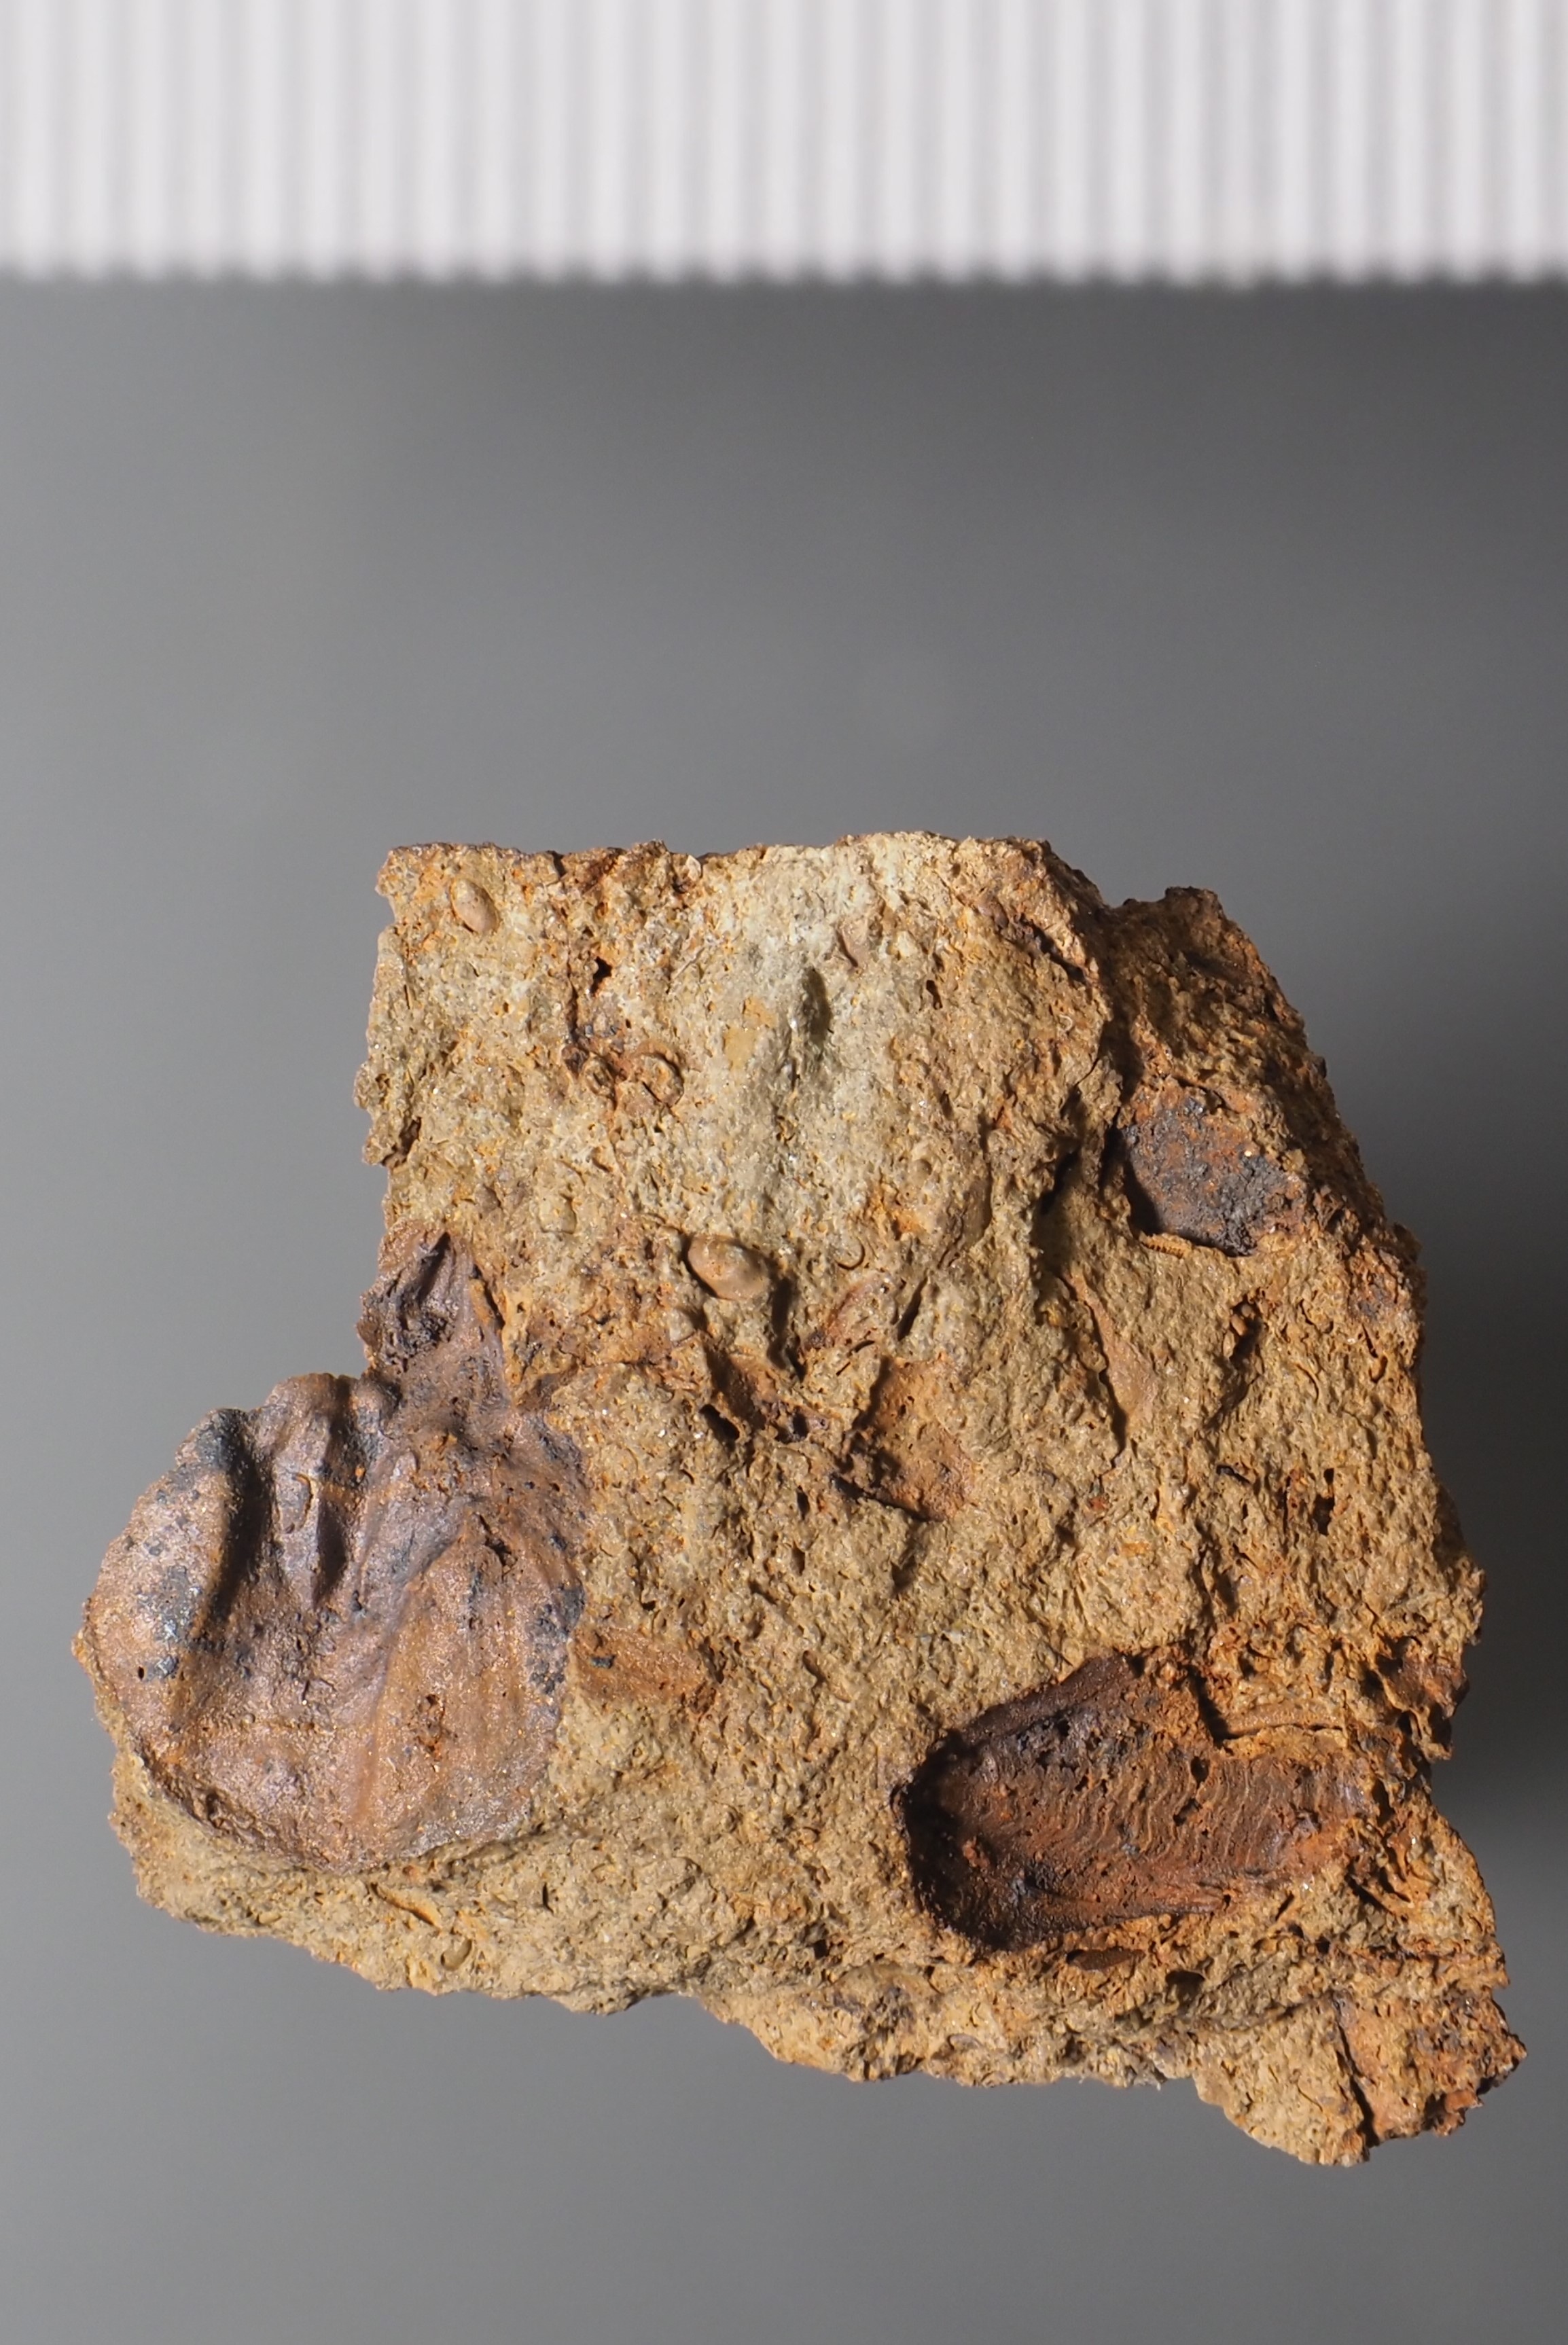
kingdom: Animalia
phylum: Arthropoda
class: Ostracoda
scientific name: Ostracoda
